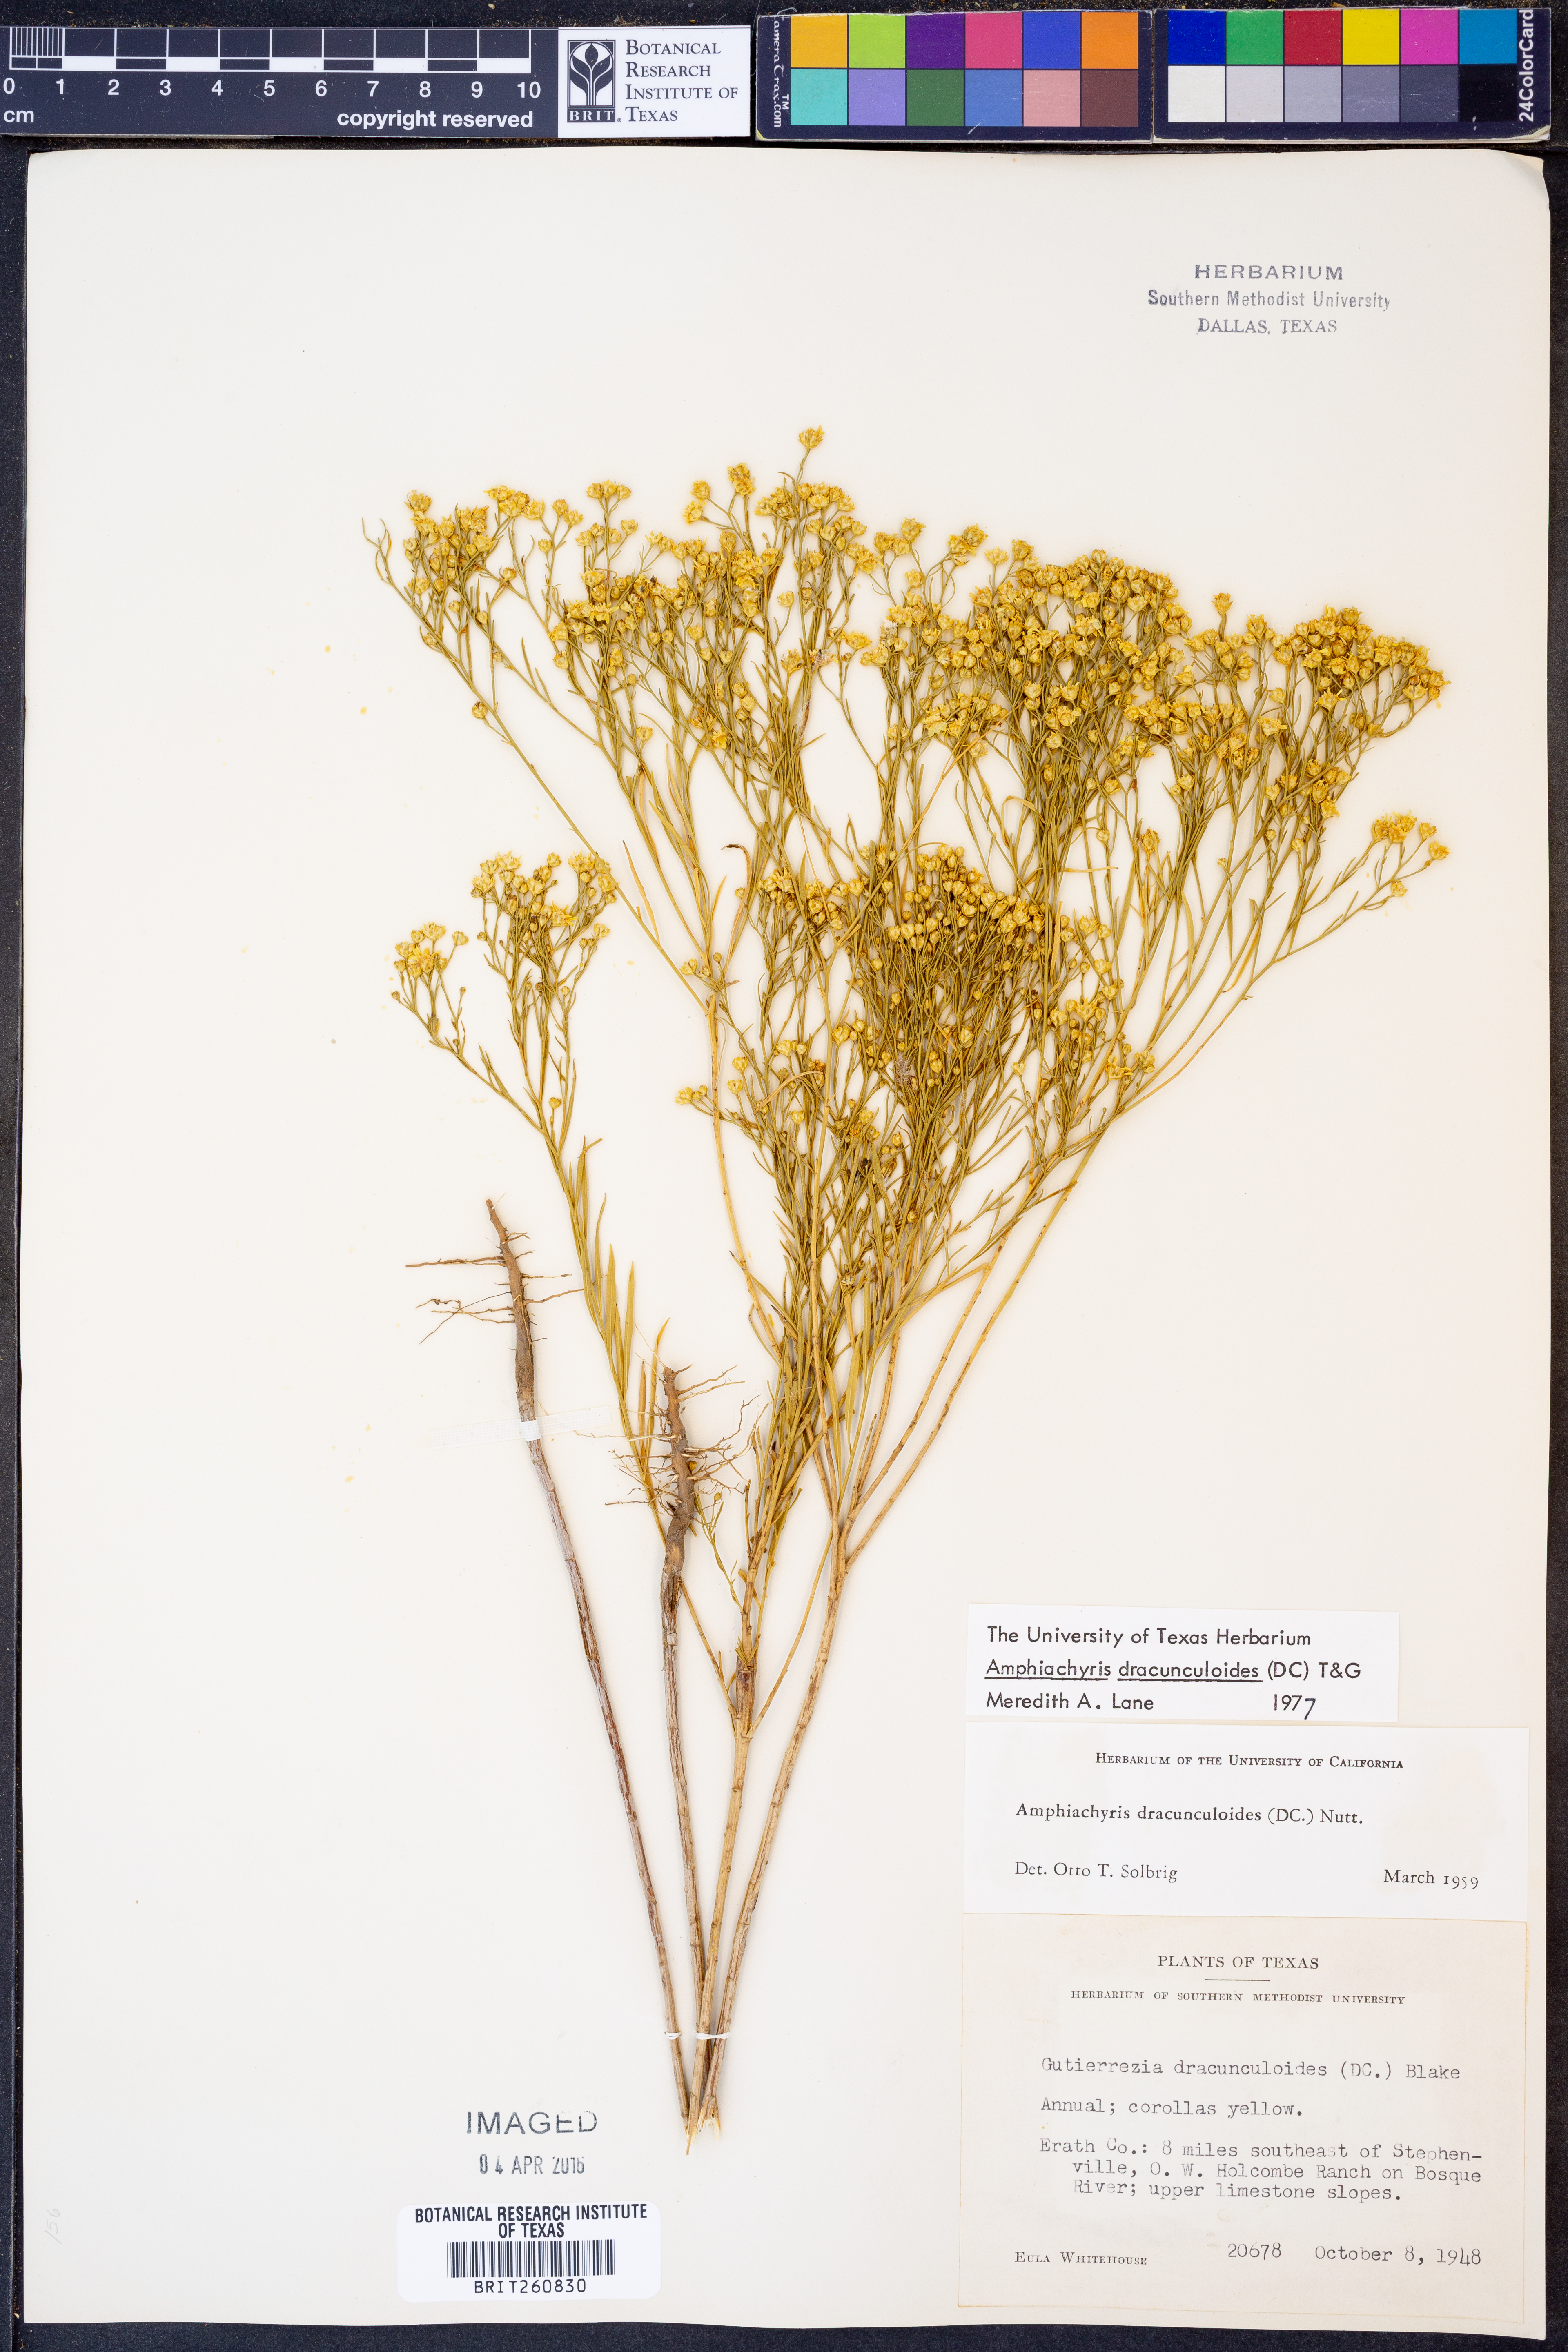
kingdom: Plantae
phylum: Tracheophyta
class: Magnoliopsida
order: Asterales
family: Asteraceae
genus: Amphiachyris
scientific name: Amphiachyris dracunculoides
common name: Broomweed
